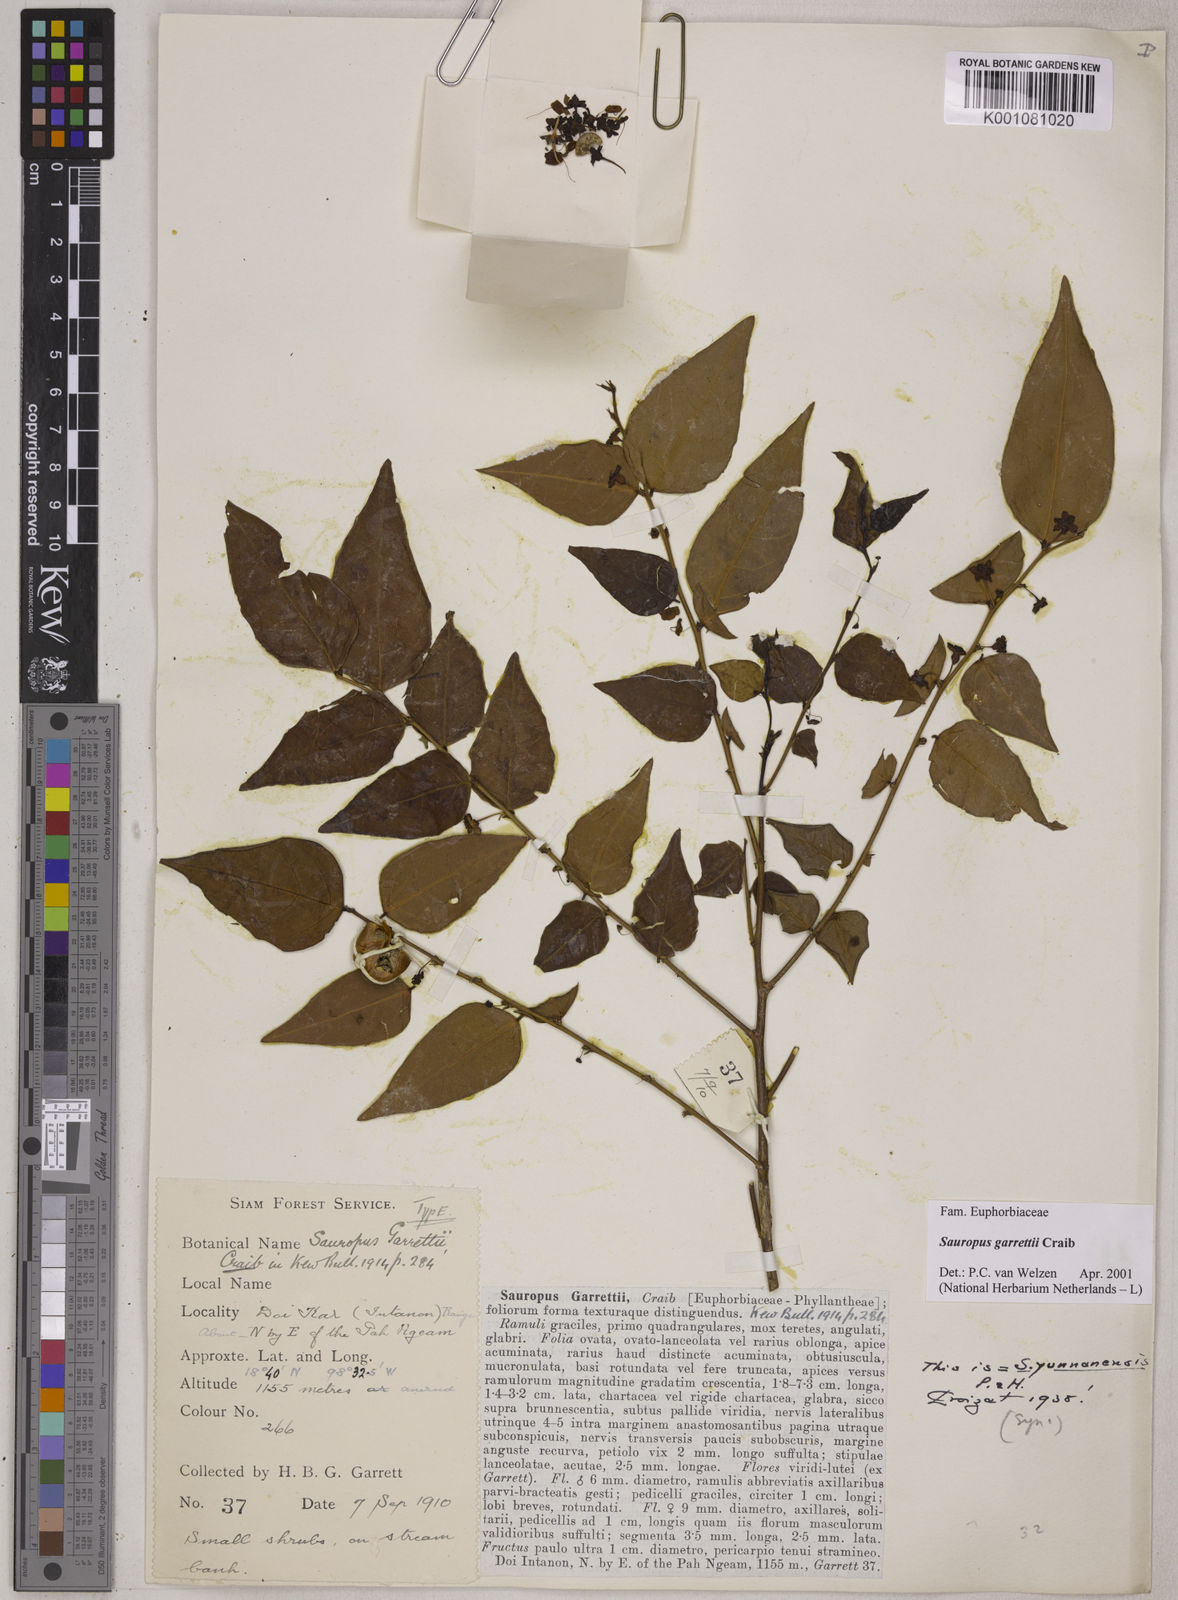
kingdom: Plantae
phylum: Tracheophyta
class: Magnoliopsida
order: Malpighiales
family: Phyllanthaceae
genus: Breynia
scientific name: Breynia garrettii
